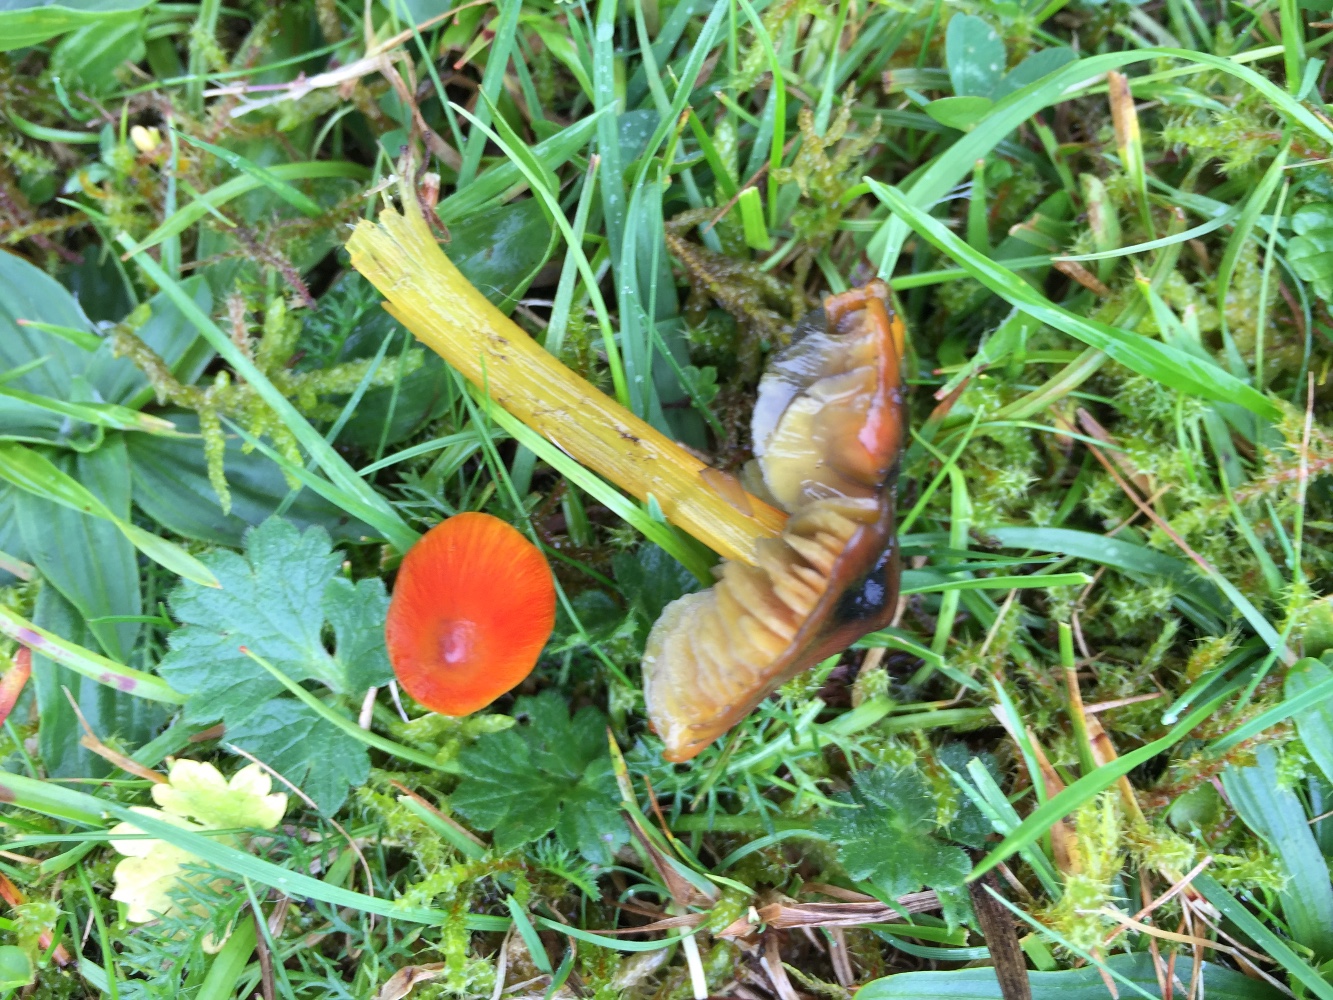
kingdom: Fungi
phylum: Basidiomycota
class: Agaricomycetes
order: Agaricales
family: Hygrophoraceae
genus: Hygrocybe
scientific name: Hygrocybe conica
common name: kegle-vokshat
